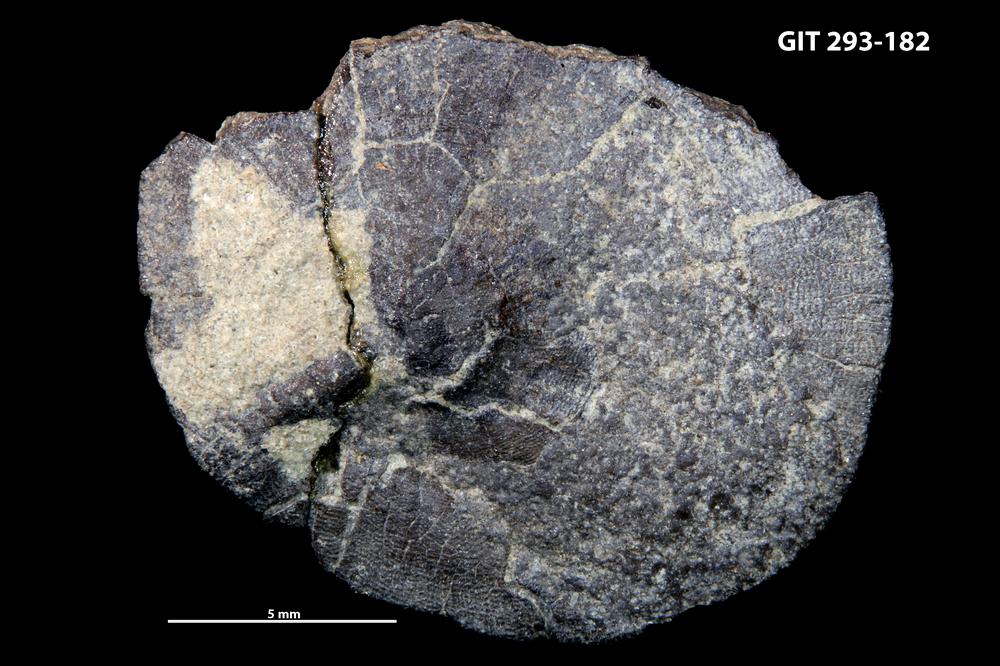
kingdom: Animalia
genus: Estoniadiscus
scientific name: Estoniadiscus
